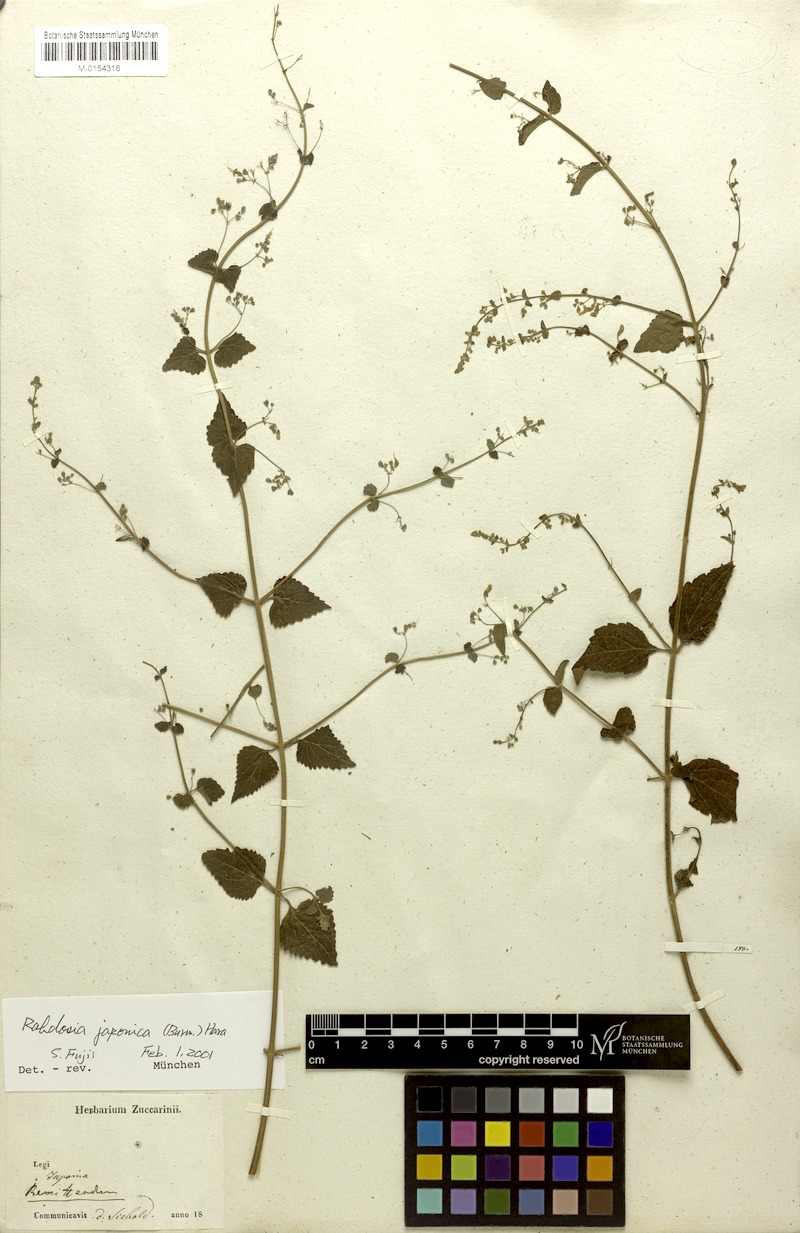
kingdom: Plantae
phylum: Tracheophyta
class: Magnoliopsida
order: Lamiales
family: Lamiaceae
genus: Isodon
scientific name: Isodon japonicus
